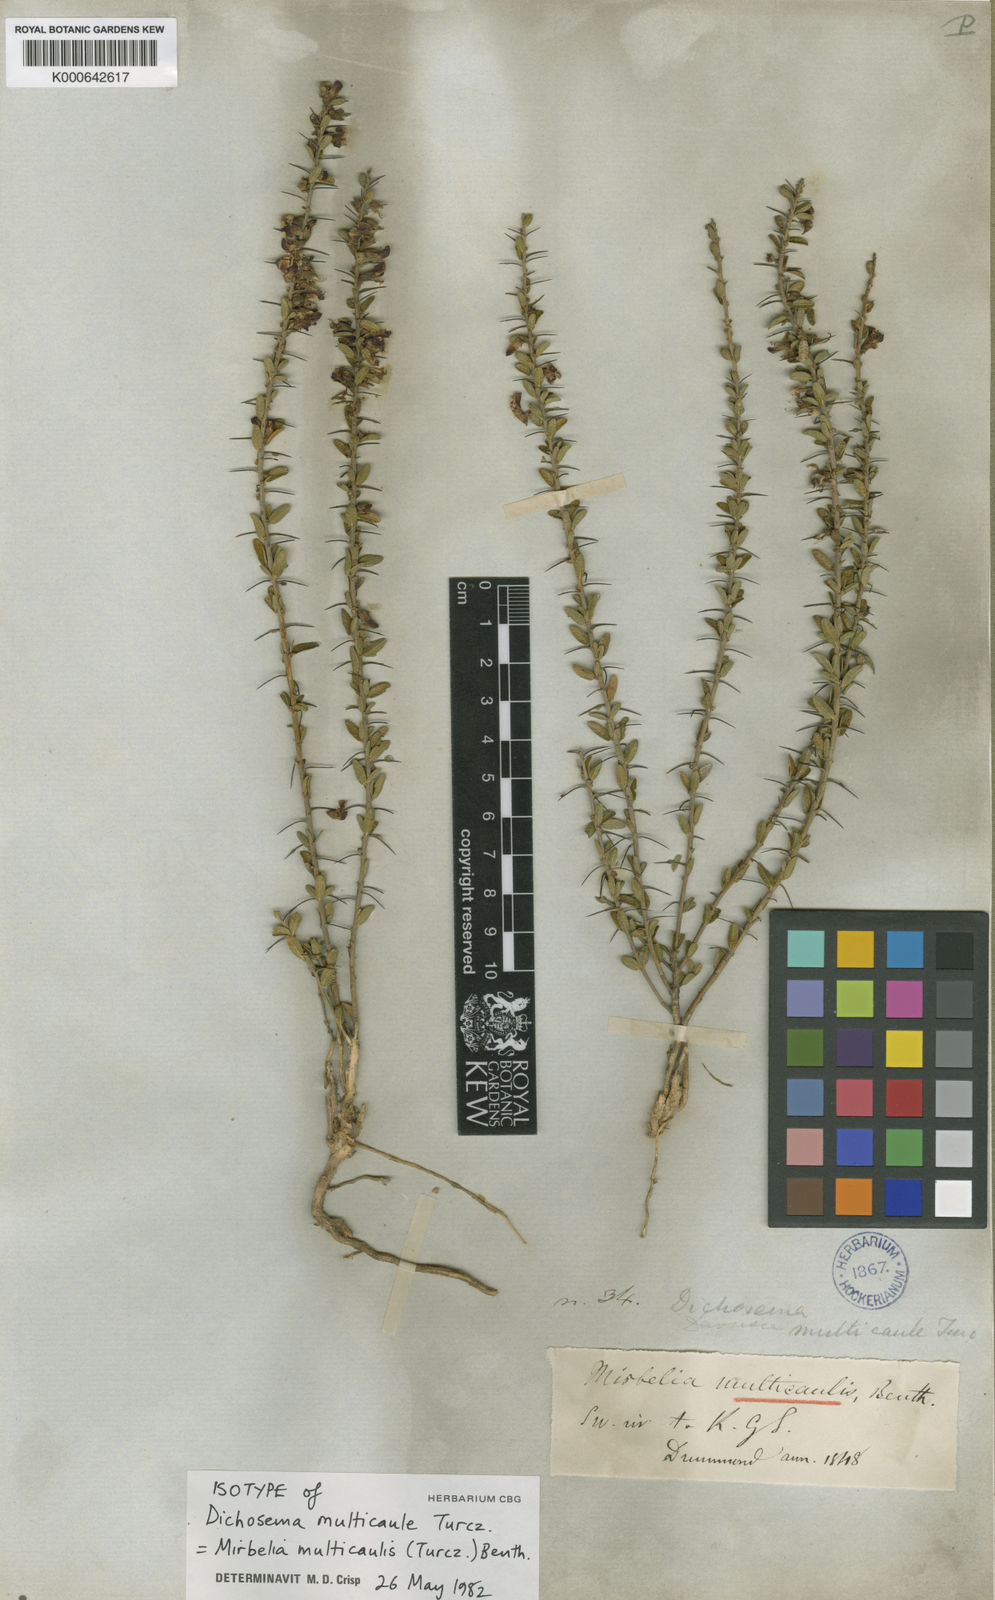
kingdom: Plantae
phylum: Tracheophyta
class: Magnoliopsida
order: Fabales
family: Fabaceae
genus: Mirbelia
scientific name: Mirbelia multicaulis
